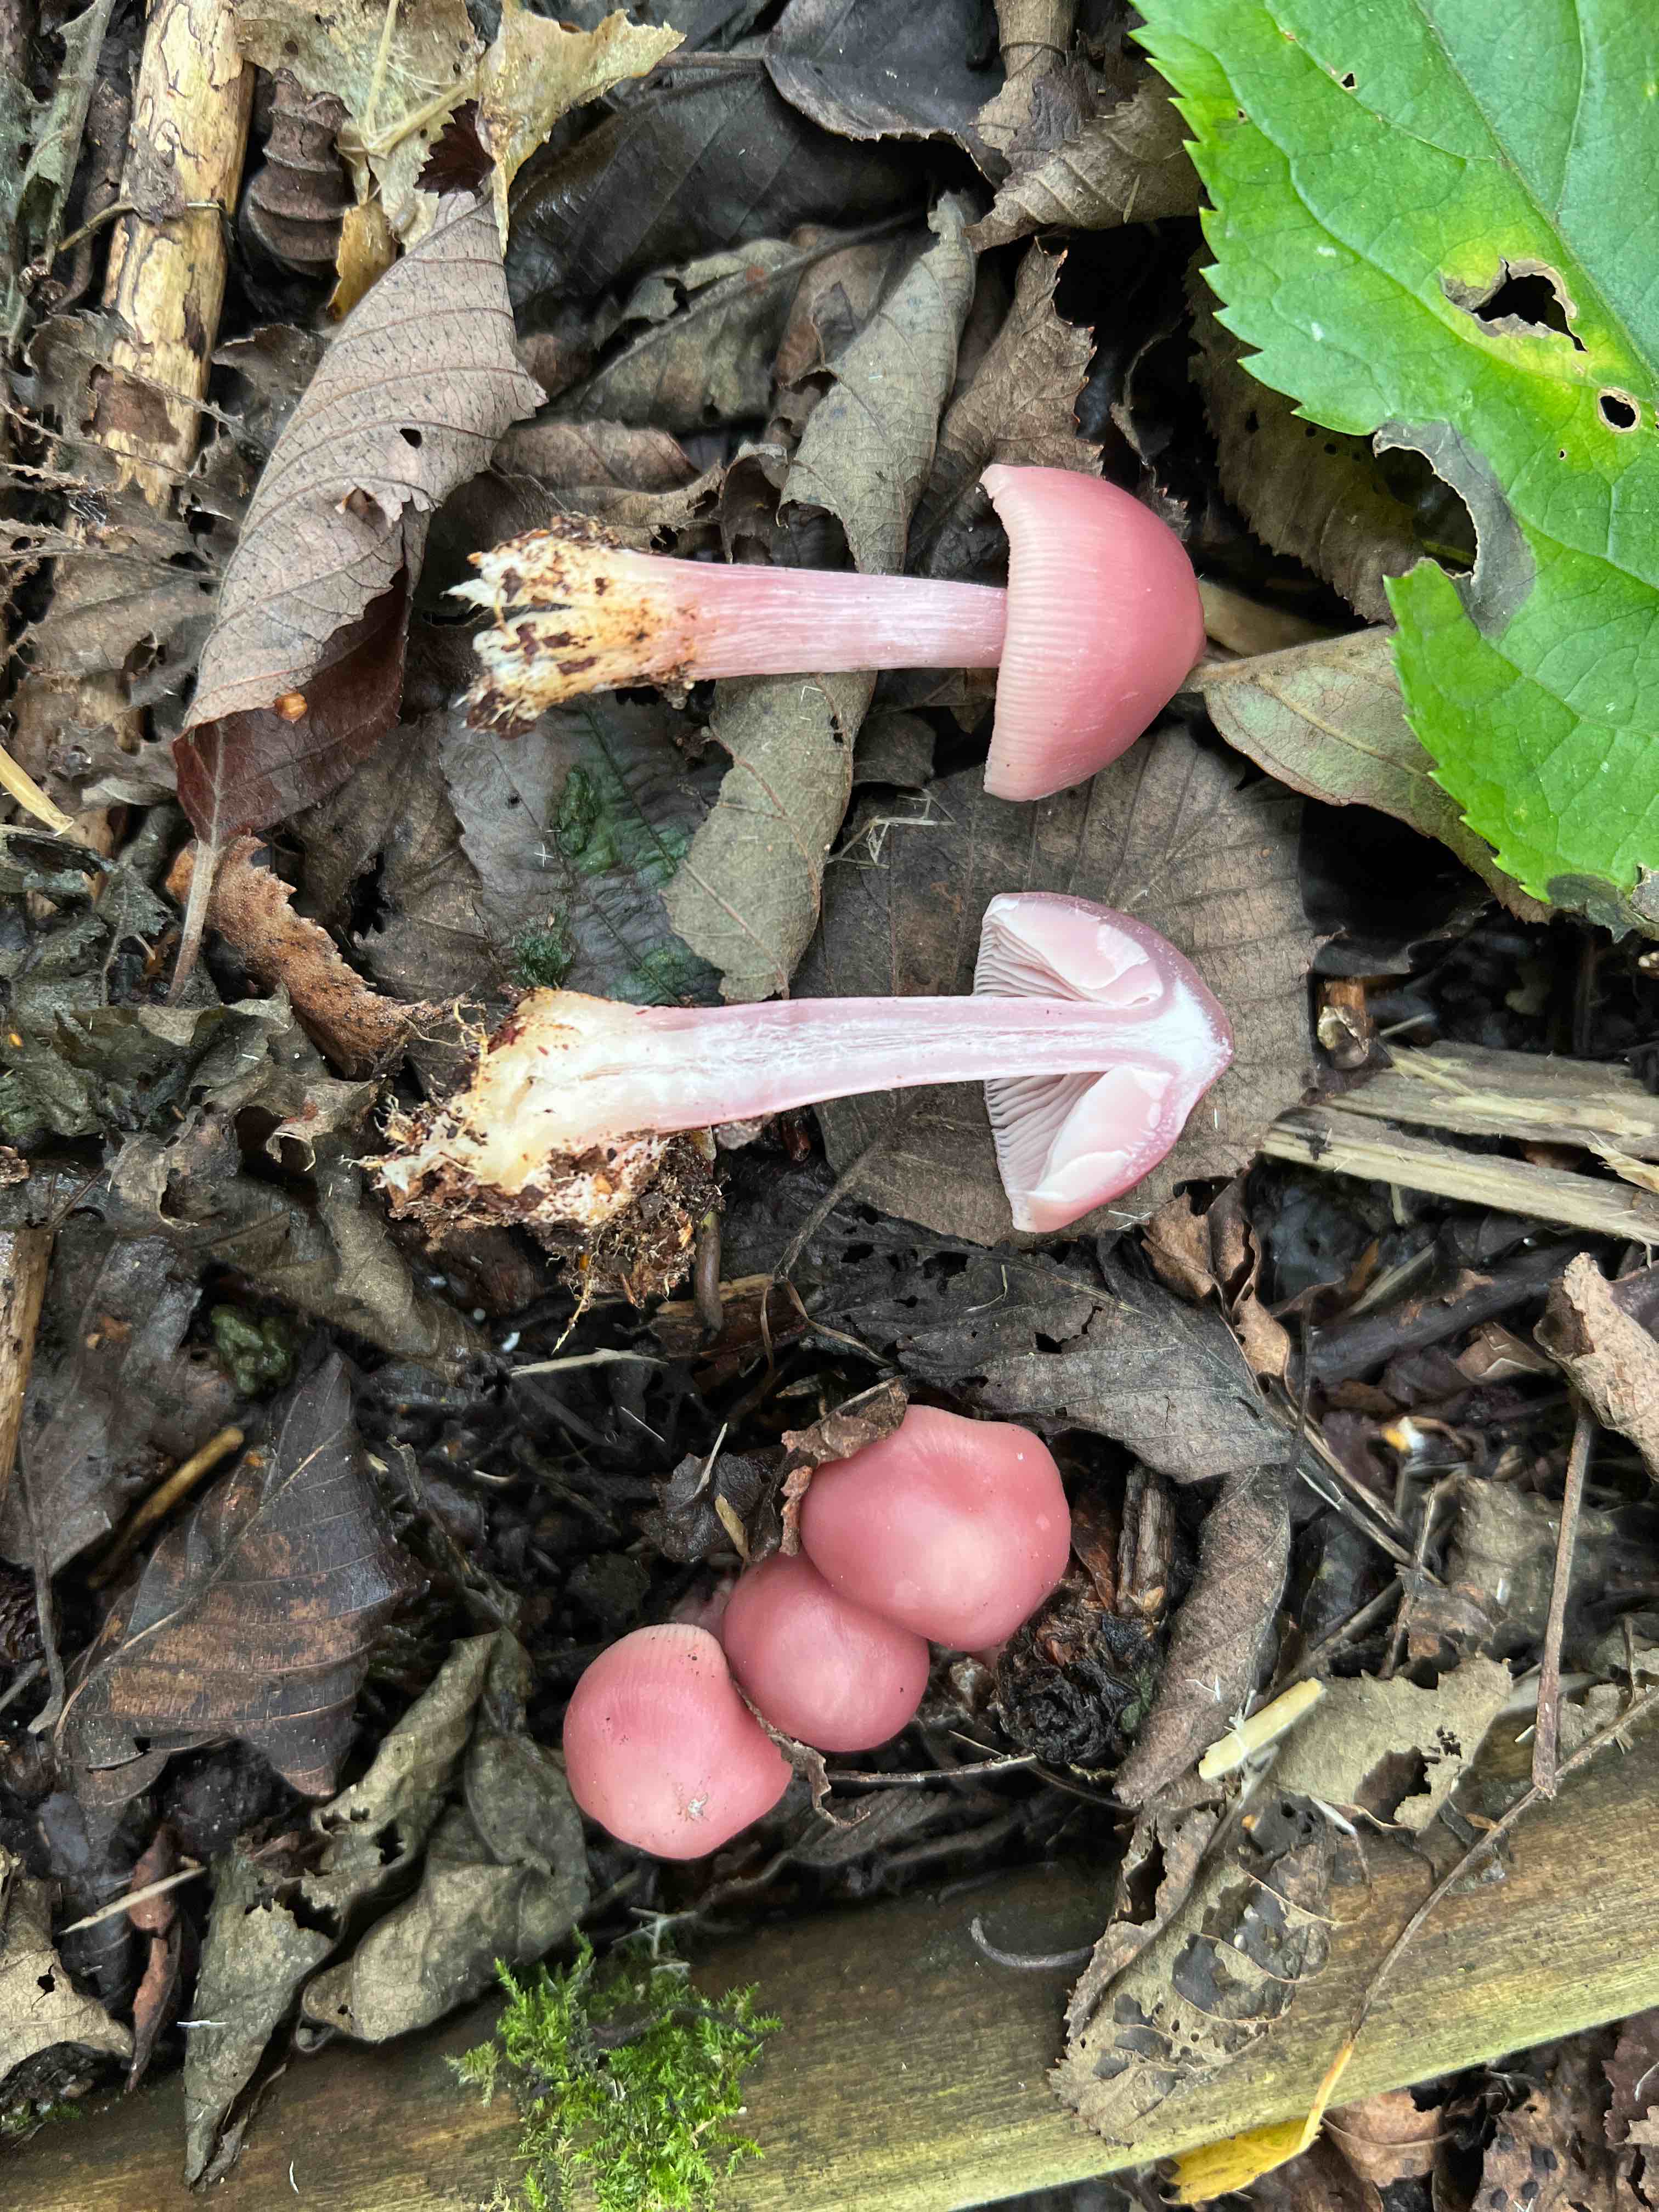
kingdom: Fungi
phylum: Basidiomycota
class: Agaricomycetes
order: Agaricales
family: Mycenaceae
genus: Mycena
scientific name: Mycena rosea
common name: rosa huesvamp
